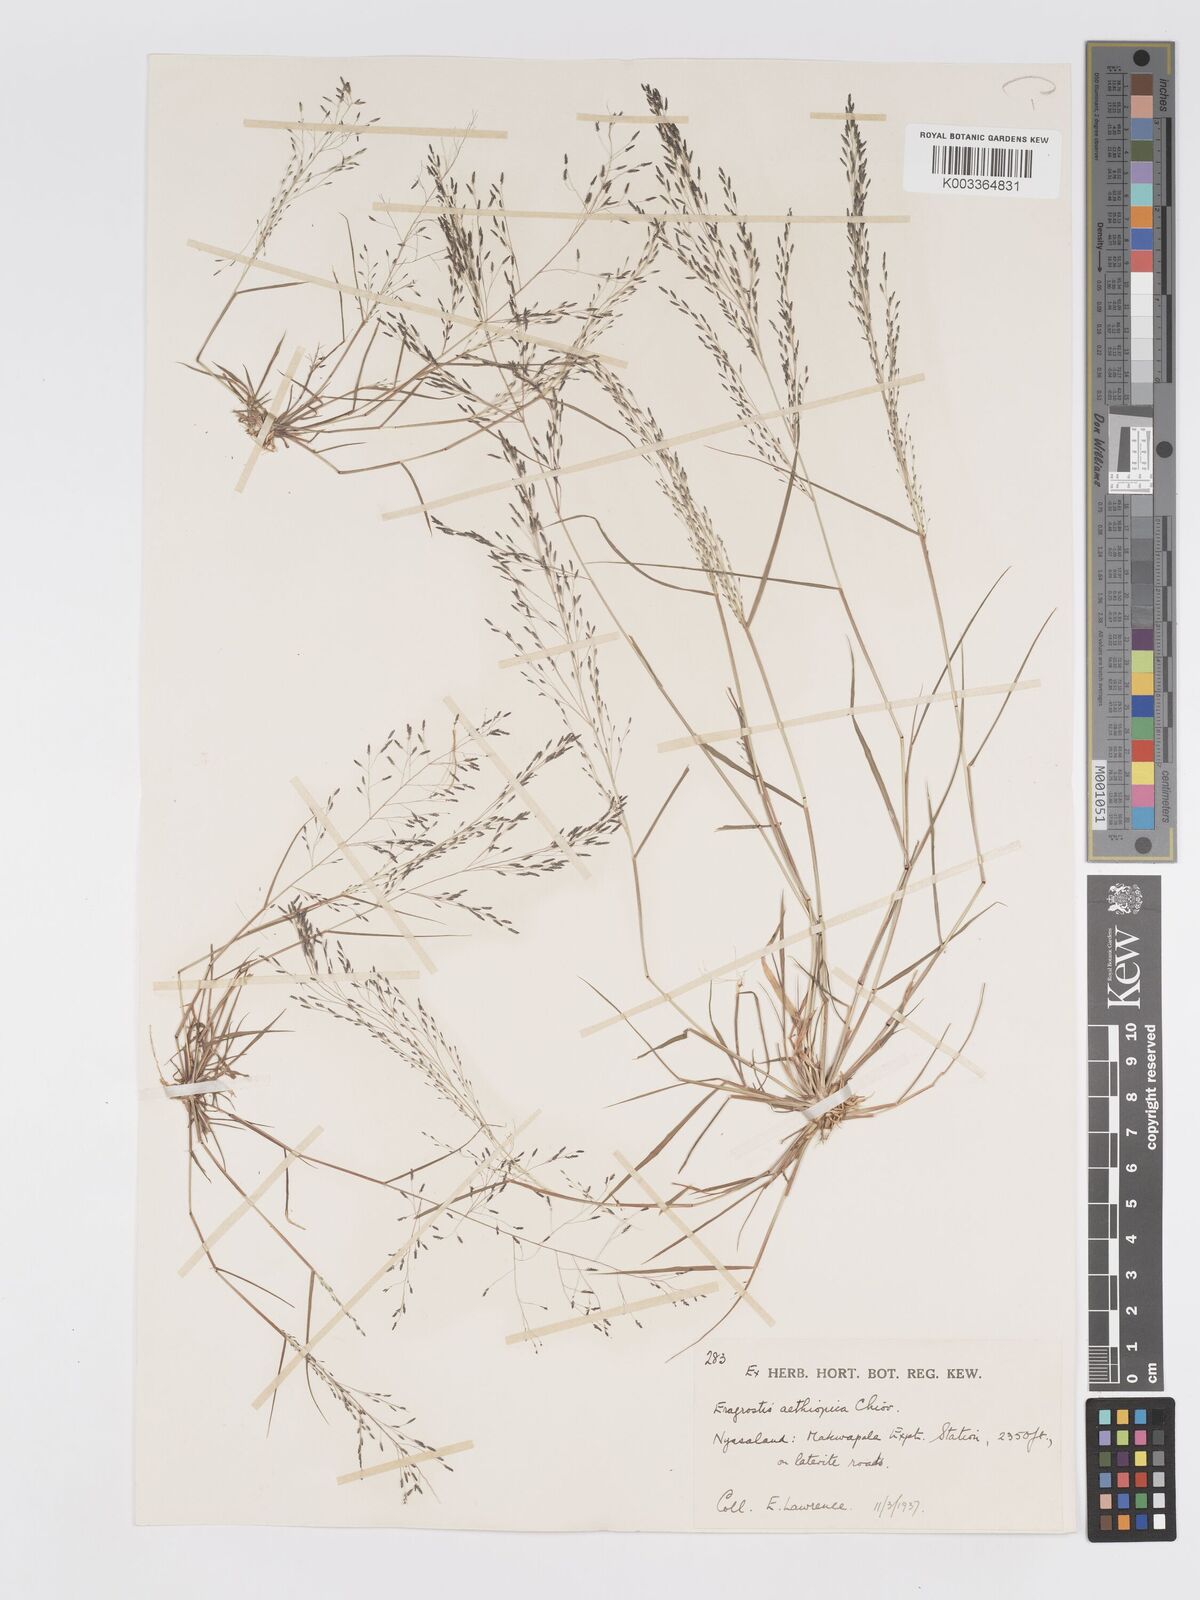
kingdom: Plantae
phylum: Tracheophyta
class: Liliopsida
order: Poales
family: Poaceae
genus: Eragrostis
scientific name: Eragrostis aethiopica
